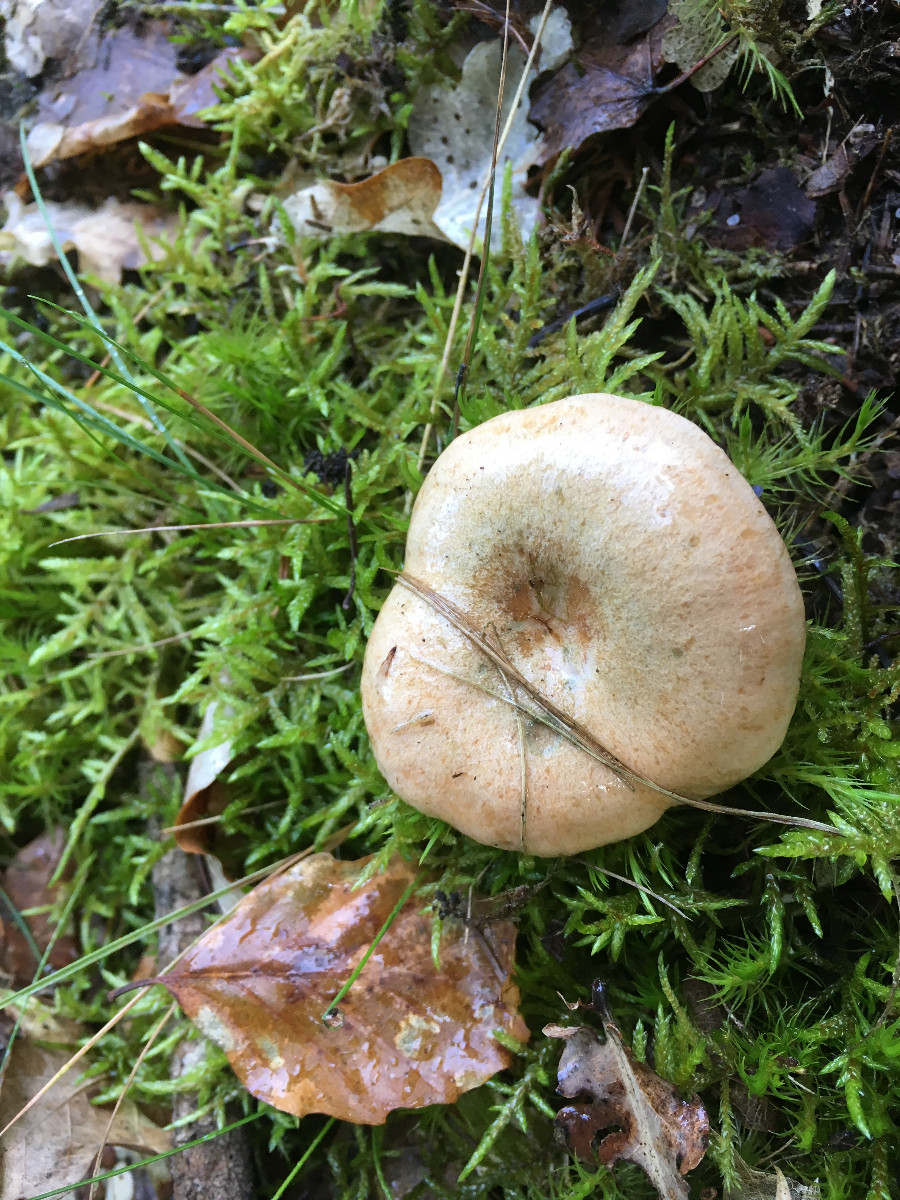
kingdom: Fungi
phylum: Basidiomycota
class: Agaricomycetes
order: Russulales
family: Russulaceae
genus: Lactarius
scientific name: Lactarius deterrimus
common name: gran-mælkehat
